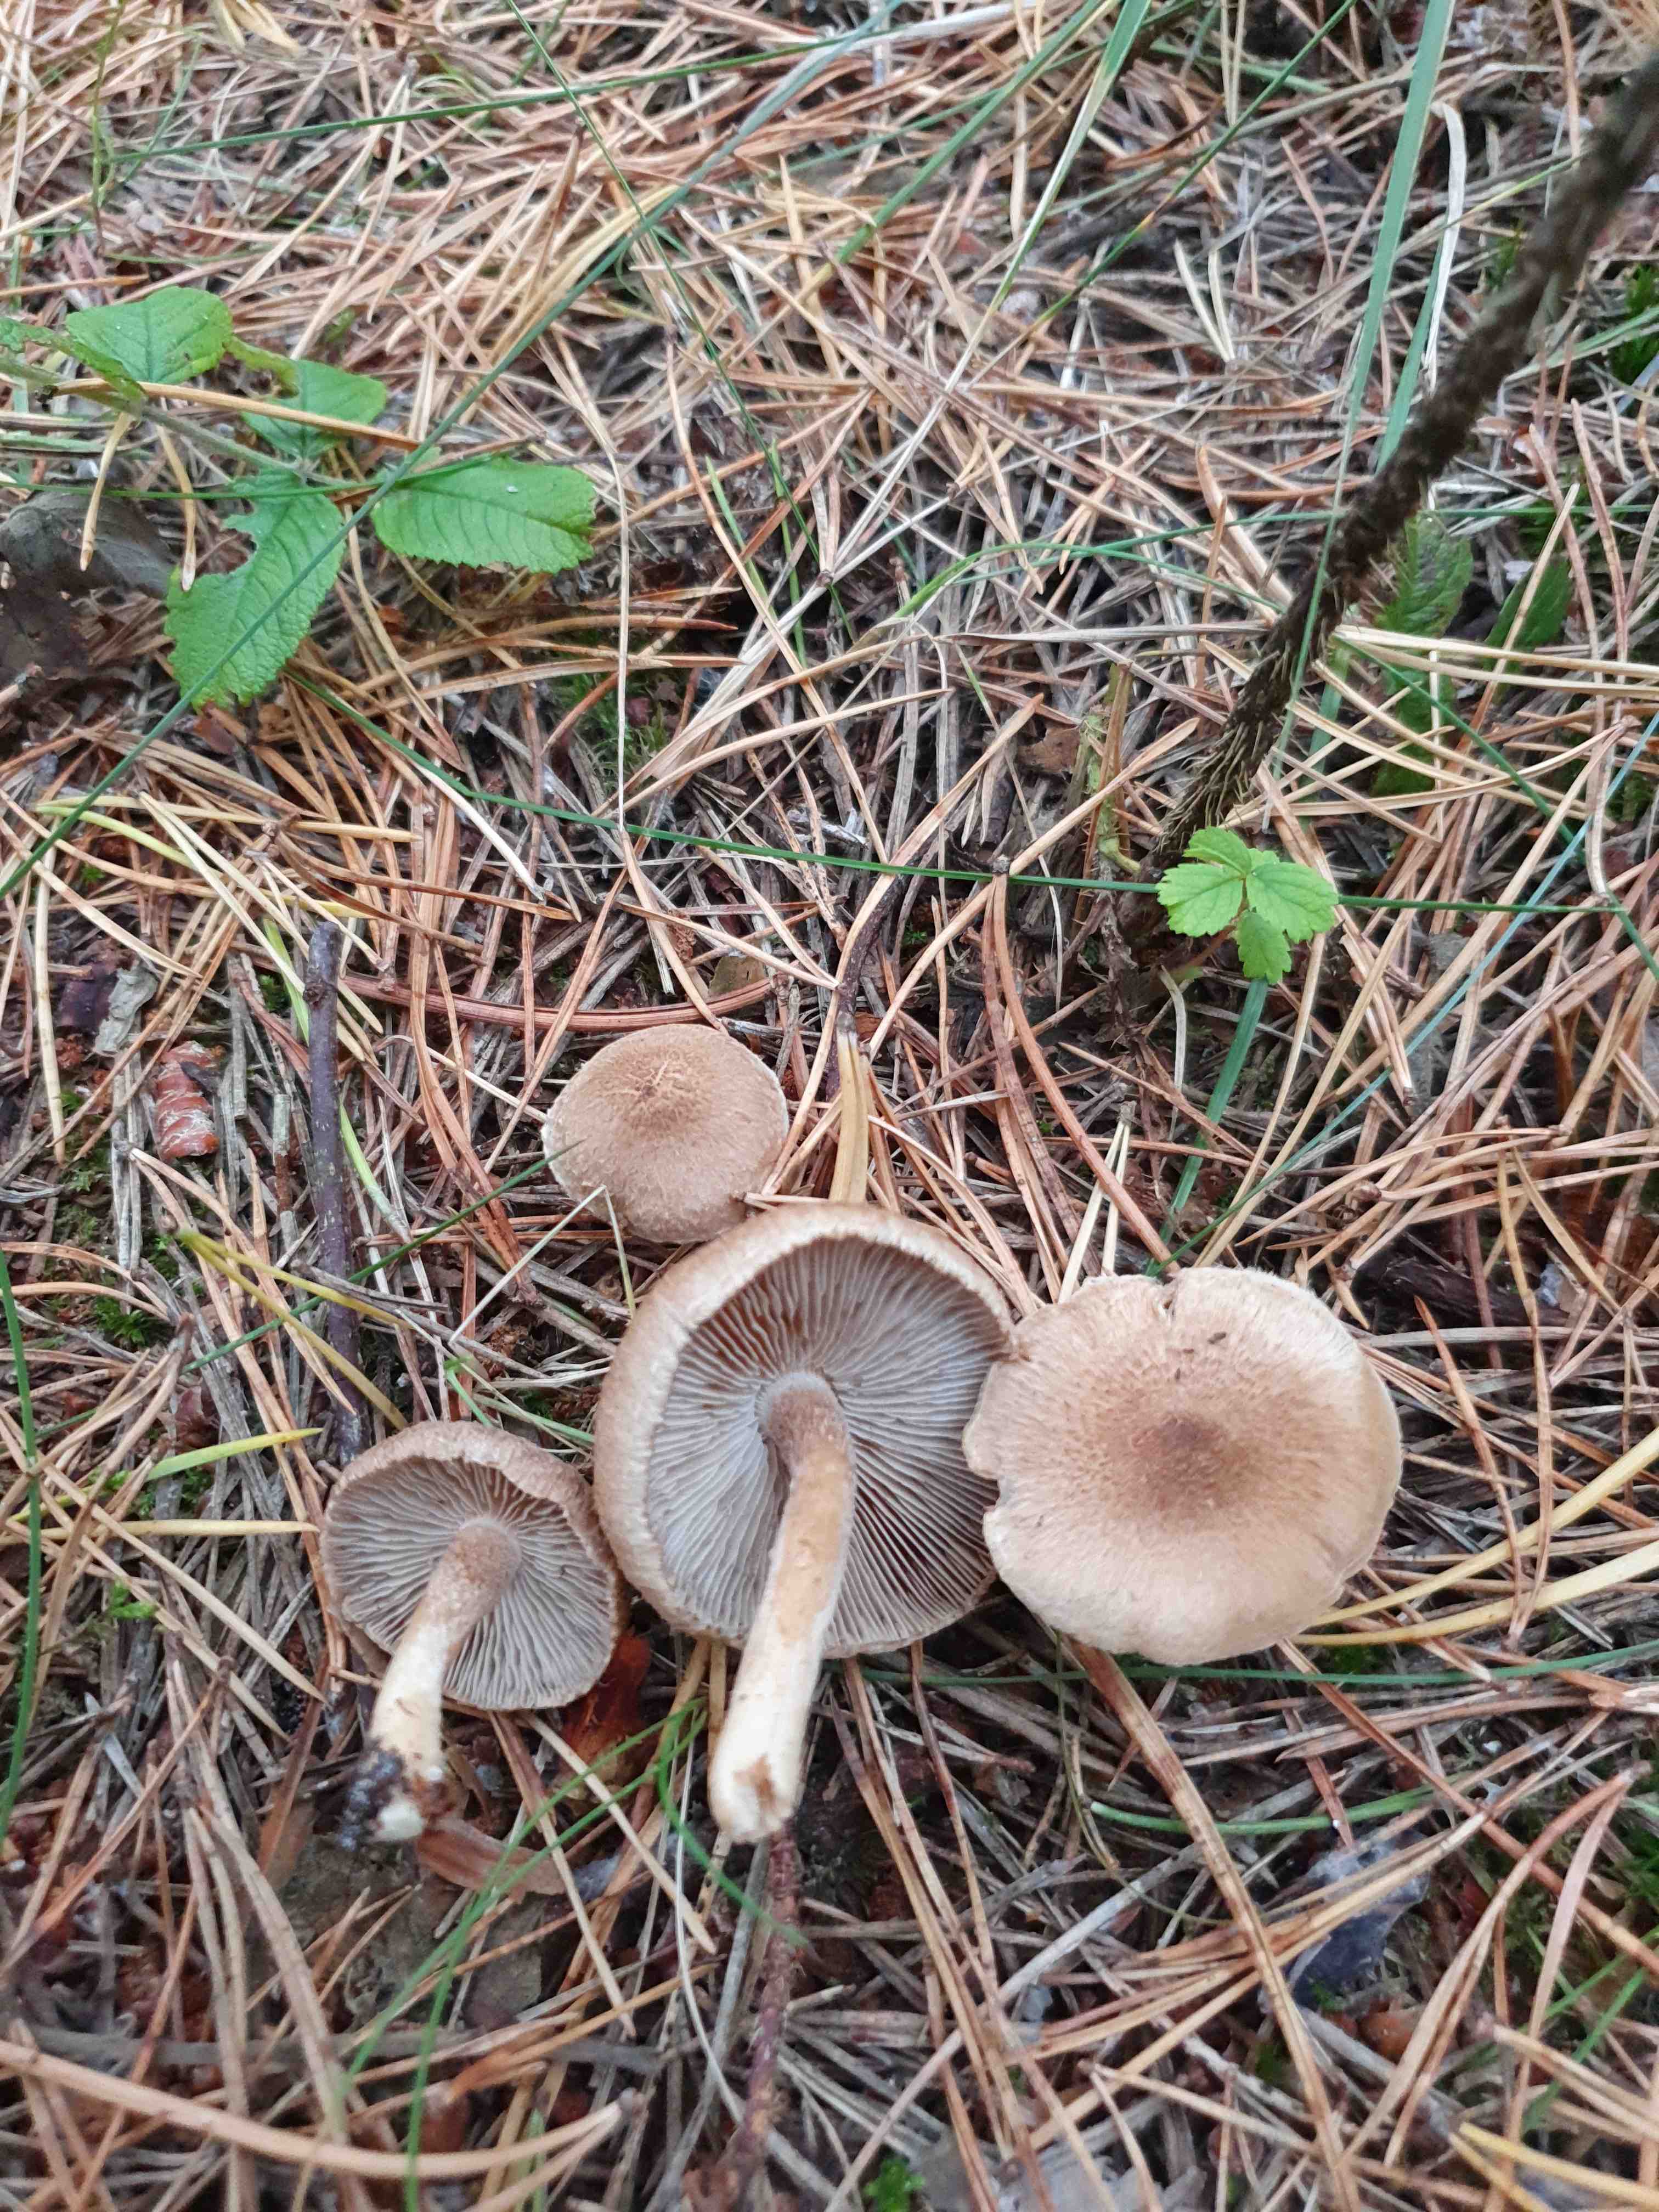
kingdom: Fungi
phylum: Basidiomycota
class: Agaricomycetes
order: Agaricales
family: Inocybaceae
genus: Inocybe
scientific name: Inocybe
